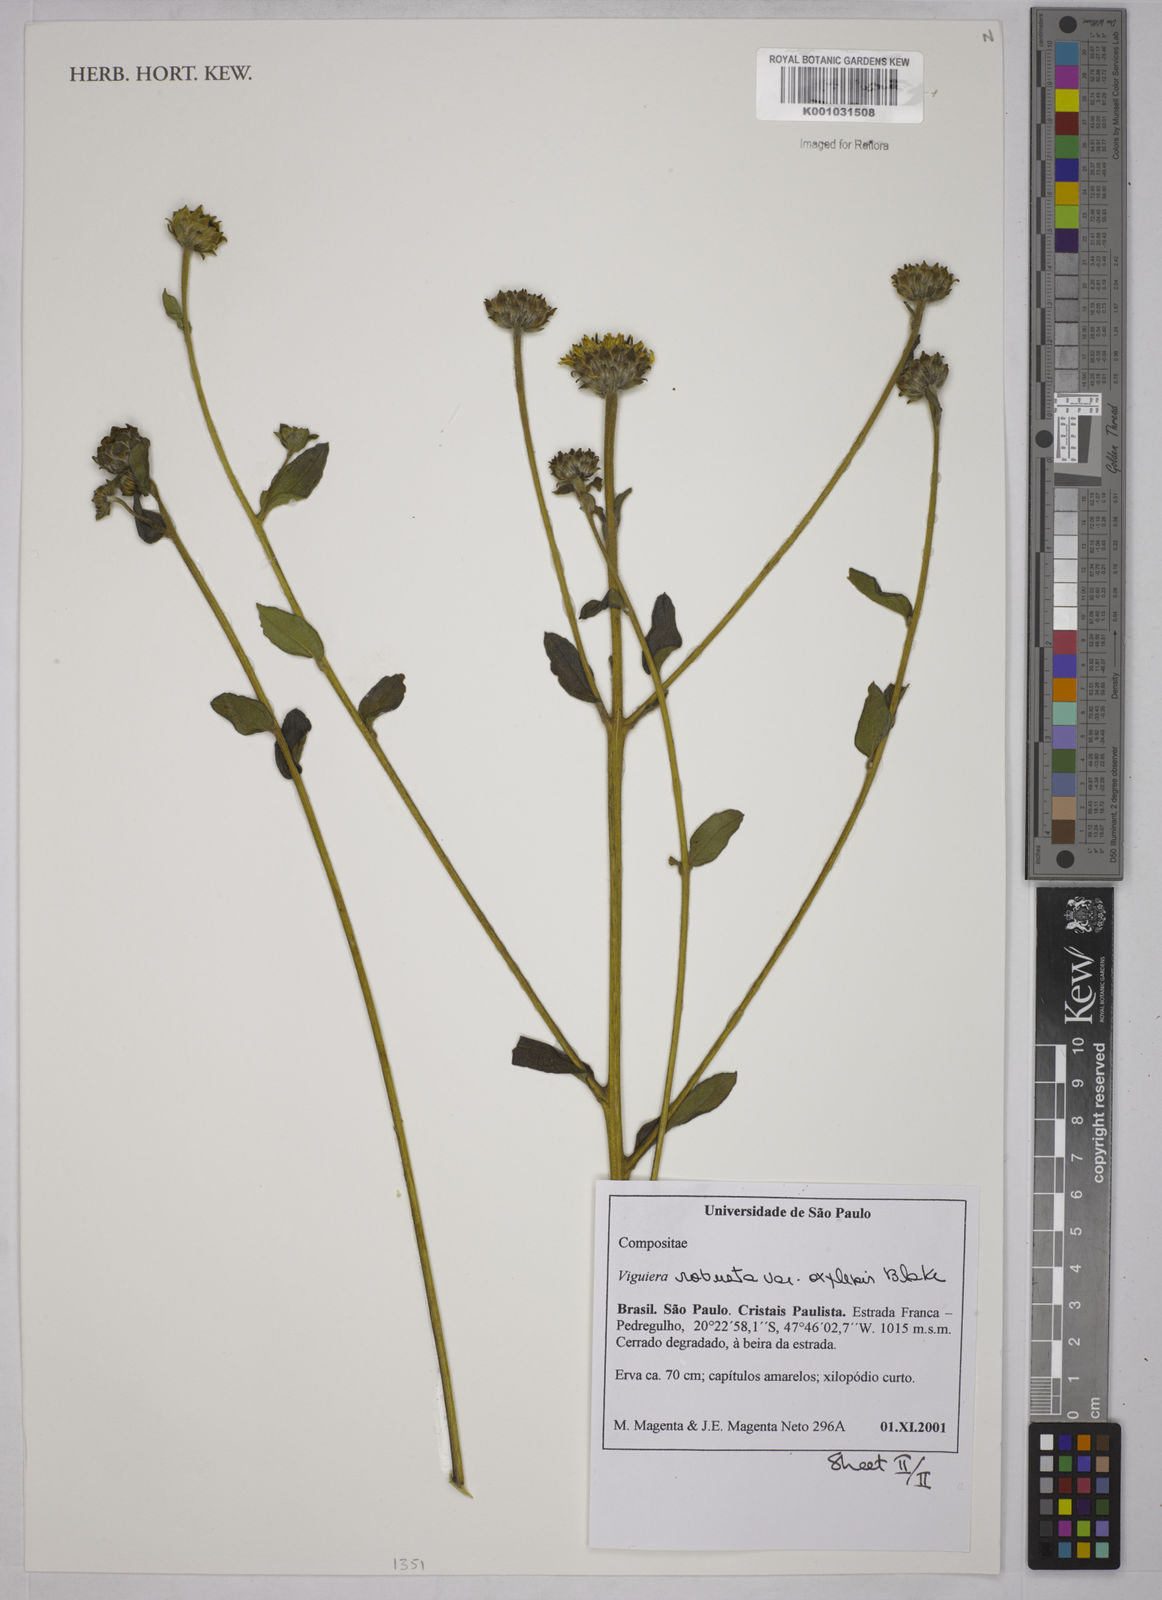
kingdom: Plantae
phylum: Tracheophyta
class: Magnoliopsida
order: Asterales
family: Asteraceae
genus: Aldama
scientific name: Aldama robusta
